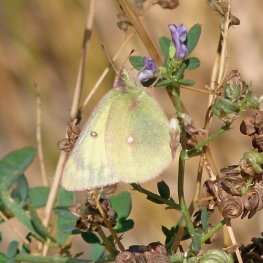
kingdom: Animalia
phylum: Arthropoda
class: Insecta
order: Lepidoptera
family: Pieridae
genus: Colias
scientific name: Colias interior
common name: Pink-edged Sulphur
